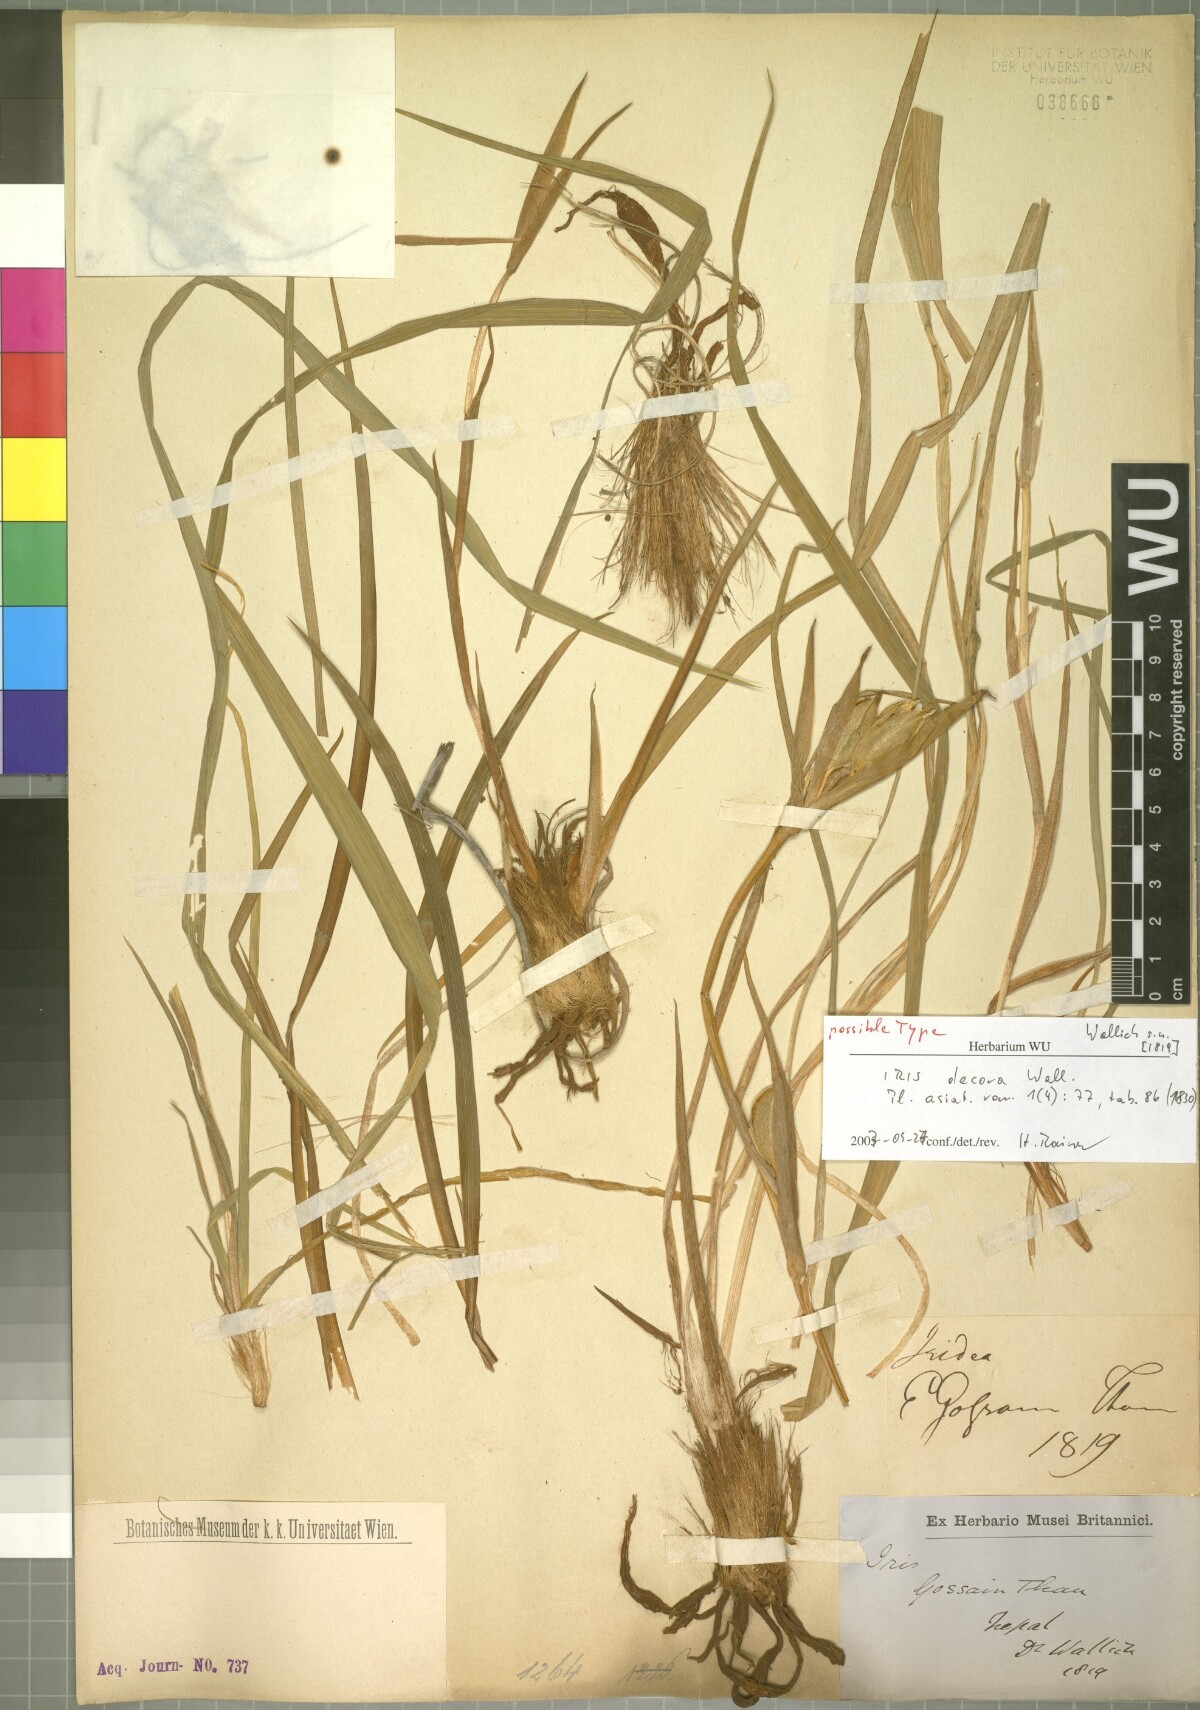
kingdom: Plantae
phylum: Tracheophyta
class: Liliopsida
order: Asparagales
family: Iridaceae
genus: Iris
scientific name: Iris decora
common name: Nepal iris
